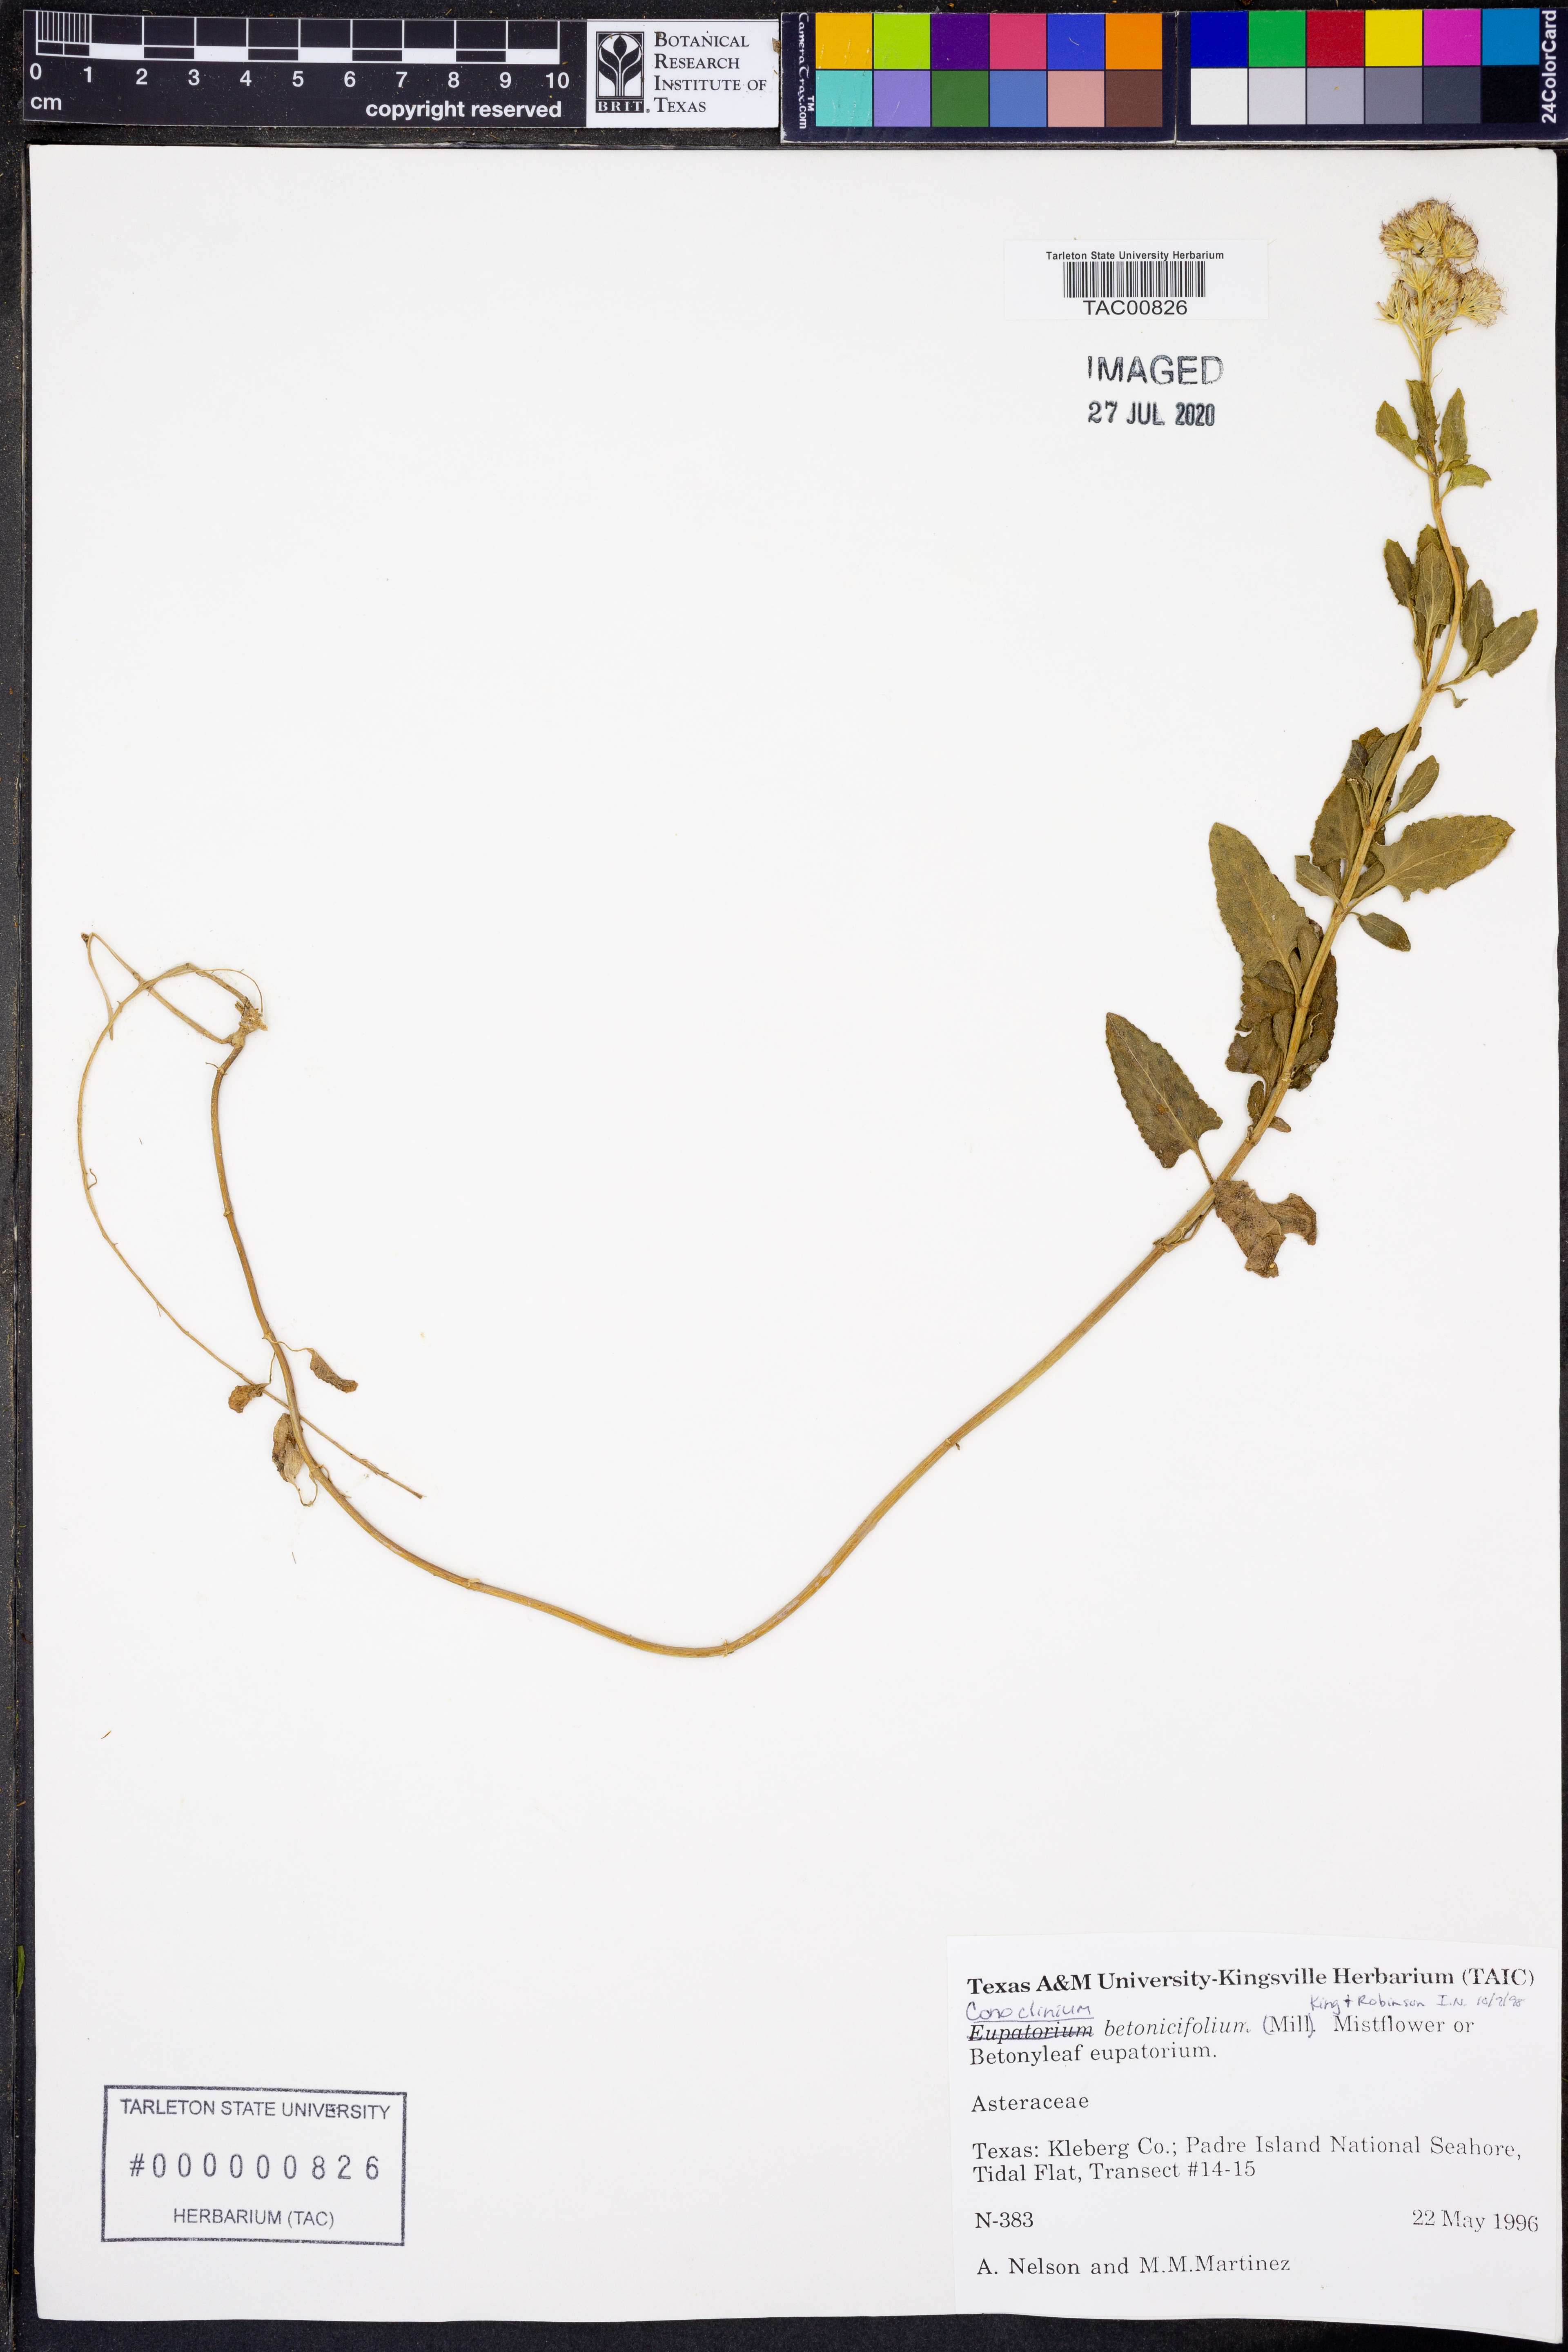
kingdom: Plantae
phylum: Tracheophyta
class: Magnoliopsida
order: Asterales
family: Asteraceae
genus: Conoclinium
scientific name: Conoclinium betonicifolium
